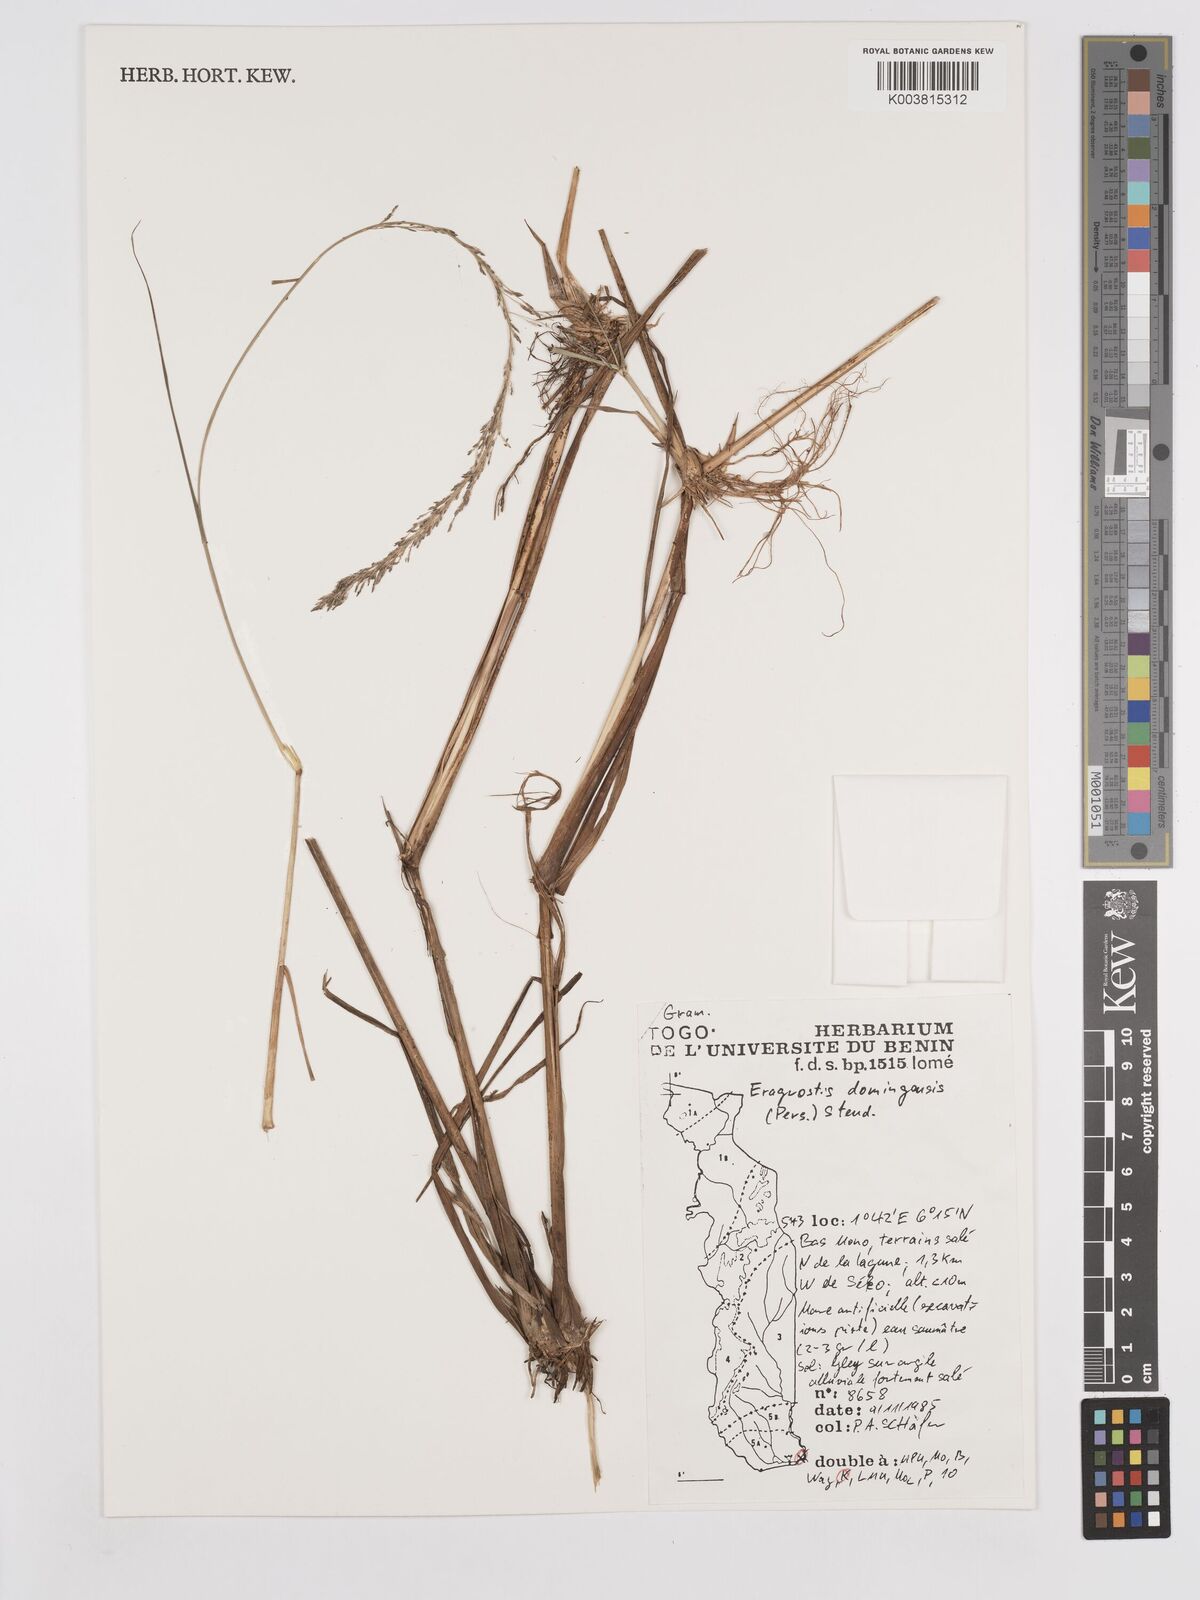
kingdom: Plantae
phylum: Tracheophyta
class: Liliopsida
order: Poales
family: Poaceae
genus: Eragrostis
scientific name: Eragrostis prolifera
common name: Dominican lovegrass
